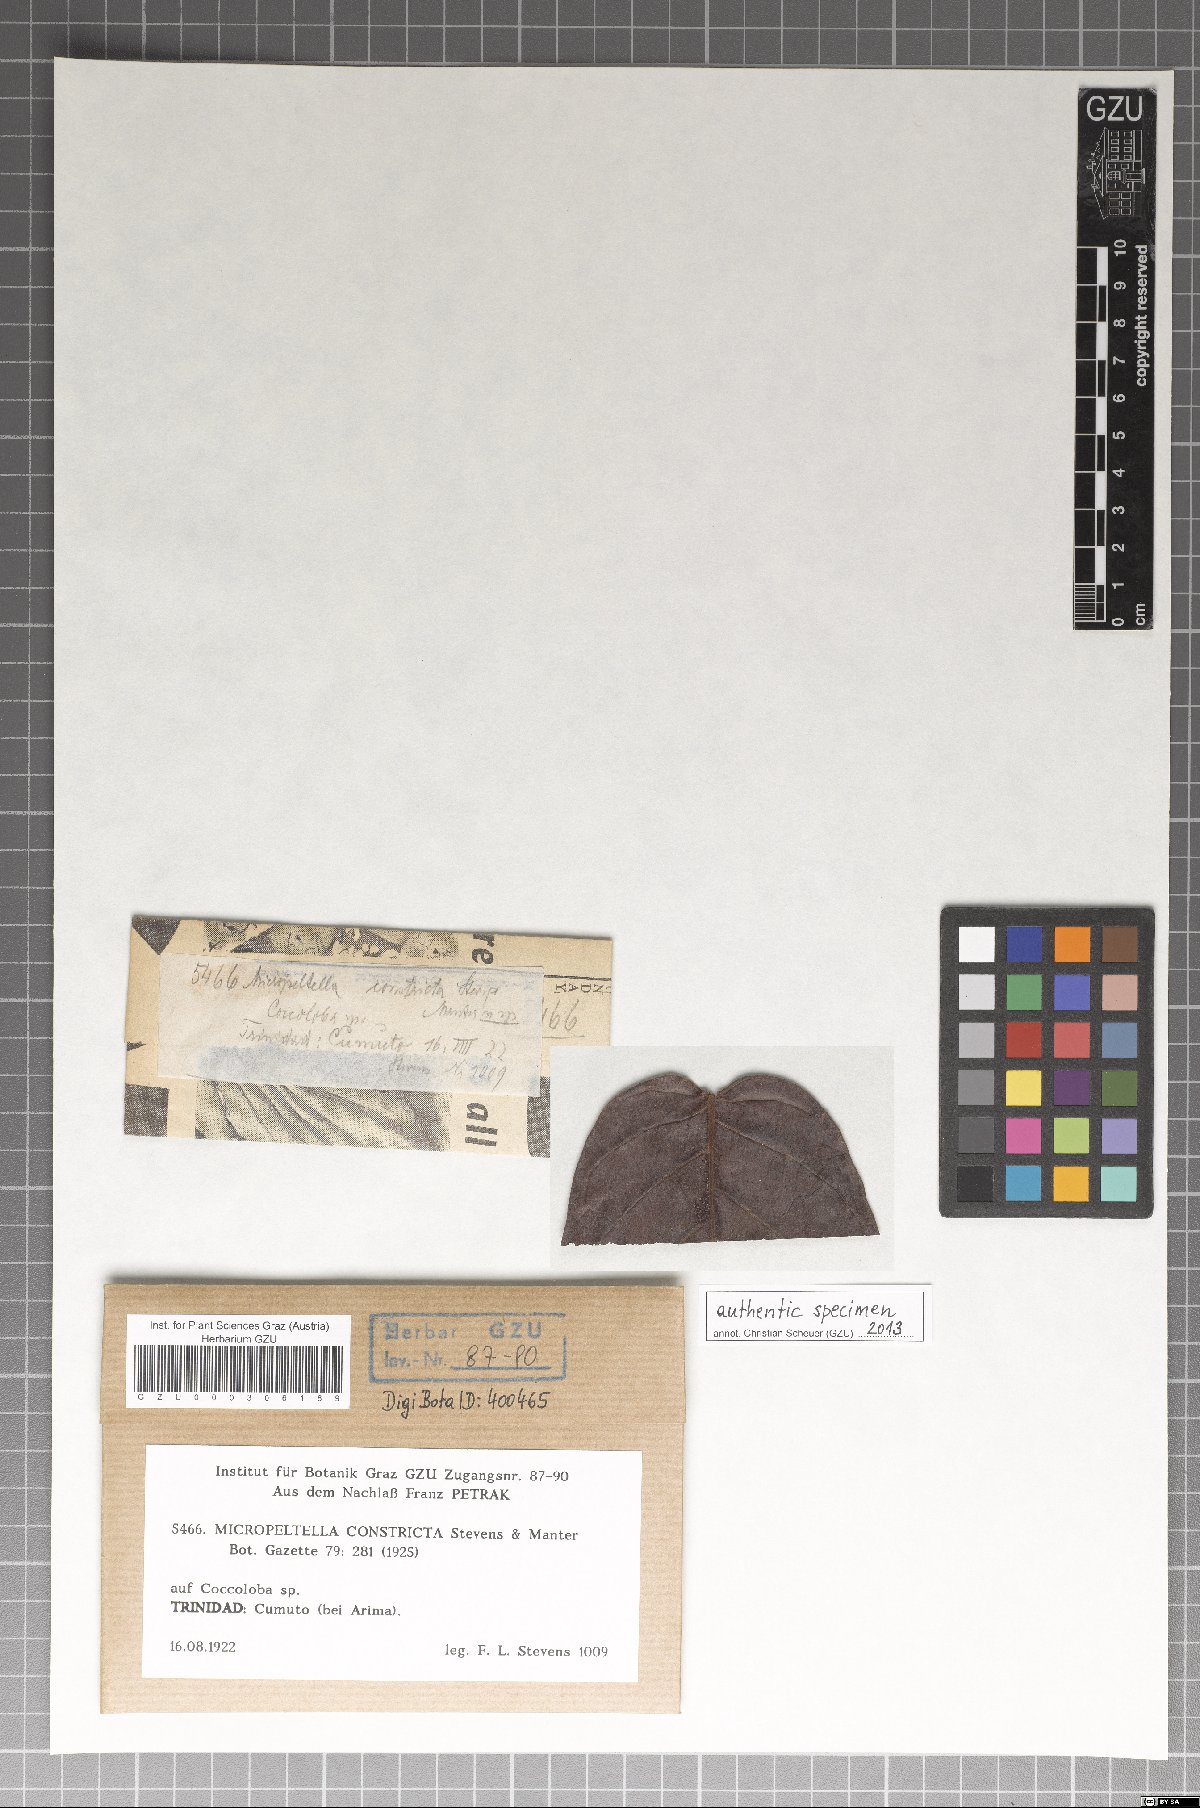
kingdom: Fungi
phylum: Ascomycota
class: Dothideomycetes
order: Microthyriales
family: Micropeltidaceae
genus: Micropeltella
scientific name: Micropeltella constricta
